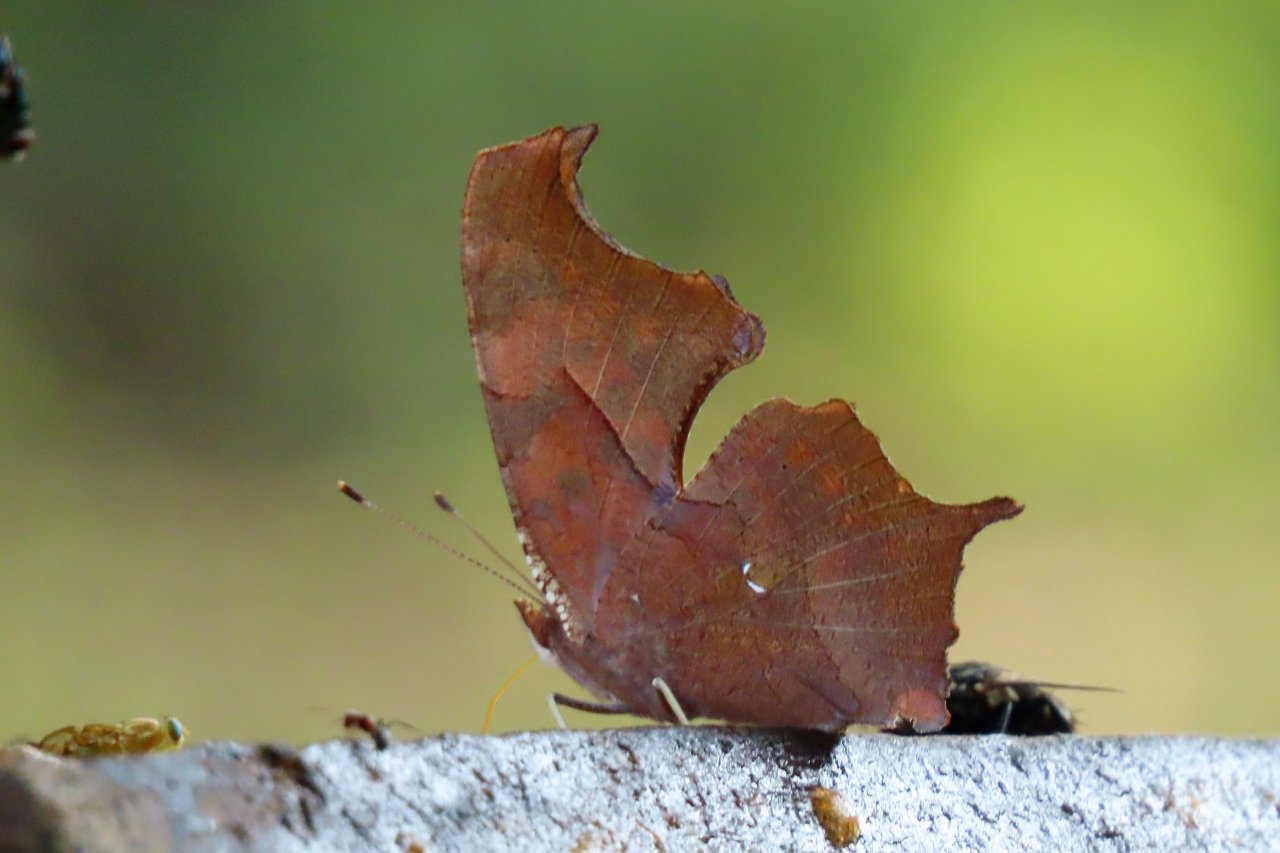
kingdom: Animalia
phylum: Arthropoda
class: Insecta
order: Lepidoptera
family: Nymphalidae
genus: Polygonia
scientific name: Polygonia interrogationis
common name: Question Mark
